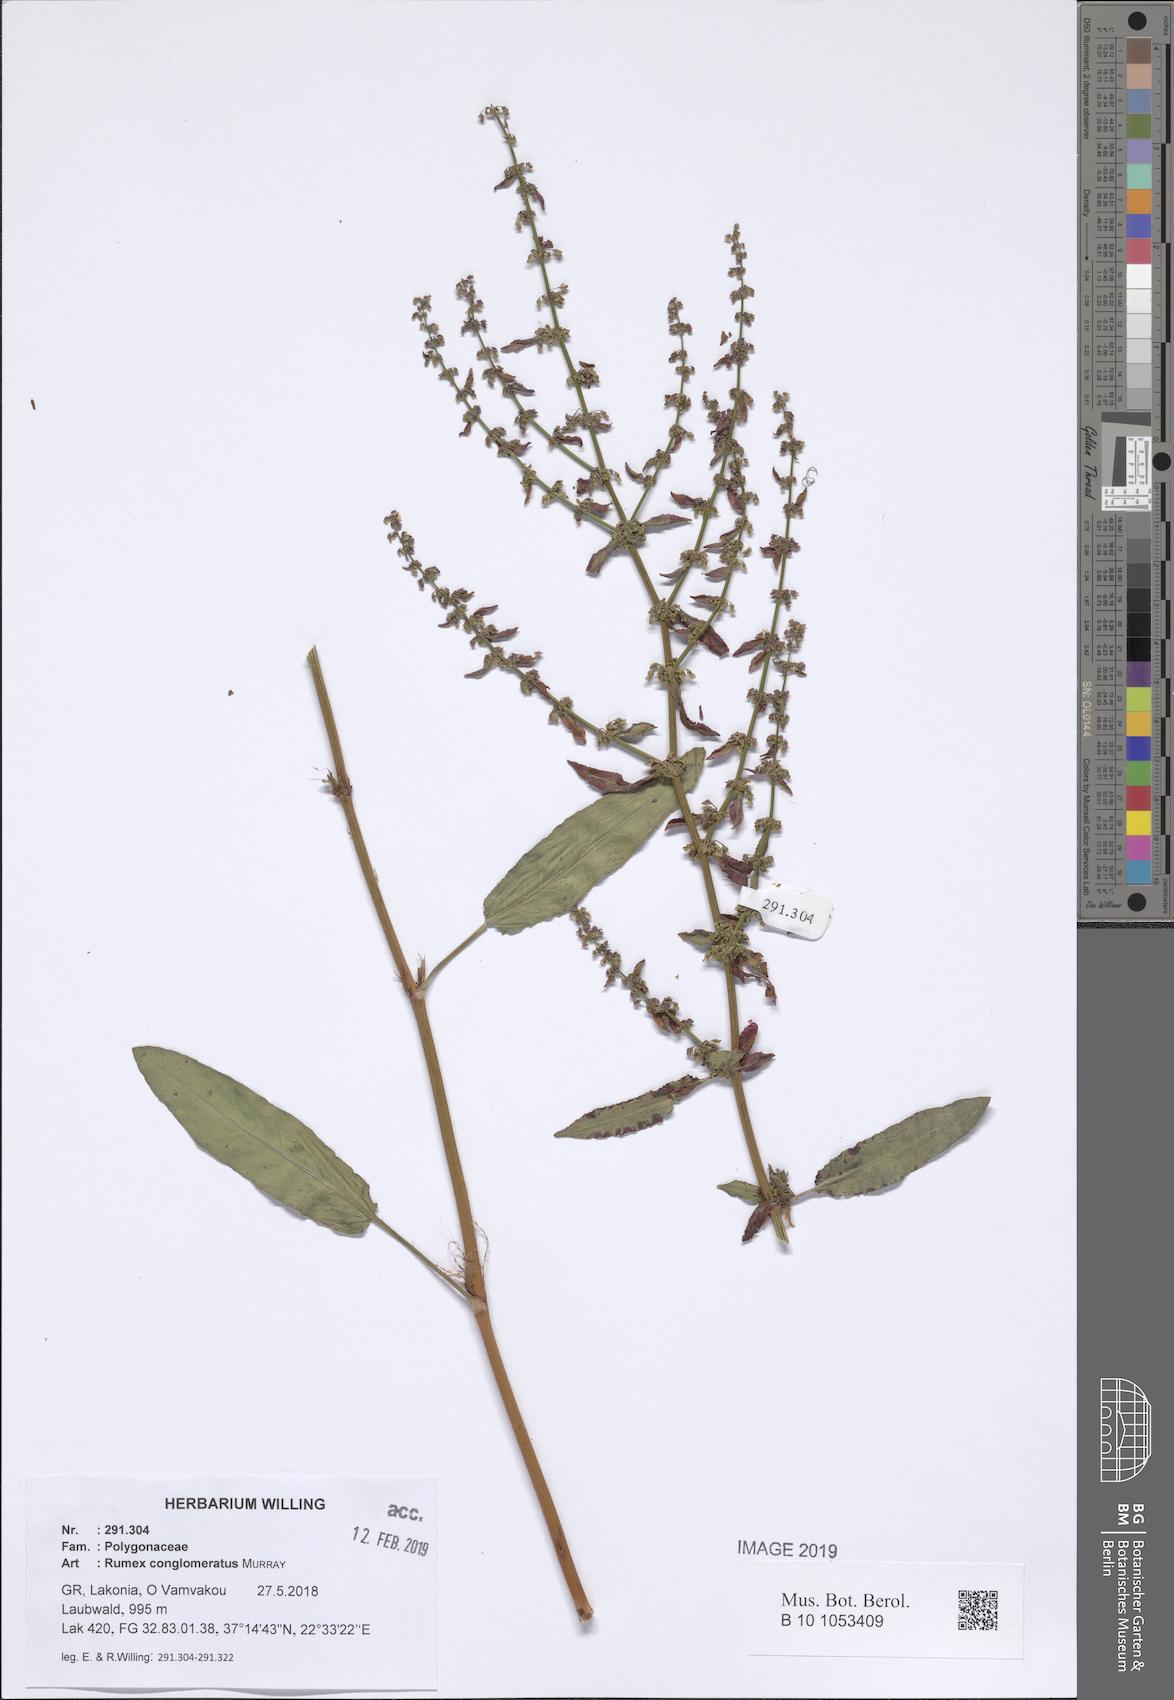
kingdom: Plantae
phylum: Tracheophyta
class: Magnoliopsida
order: Caryophyllales
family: Polygonaceae
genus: Rumex
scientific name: Rumex conglomeratus
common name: Clustered dock
